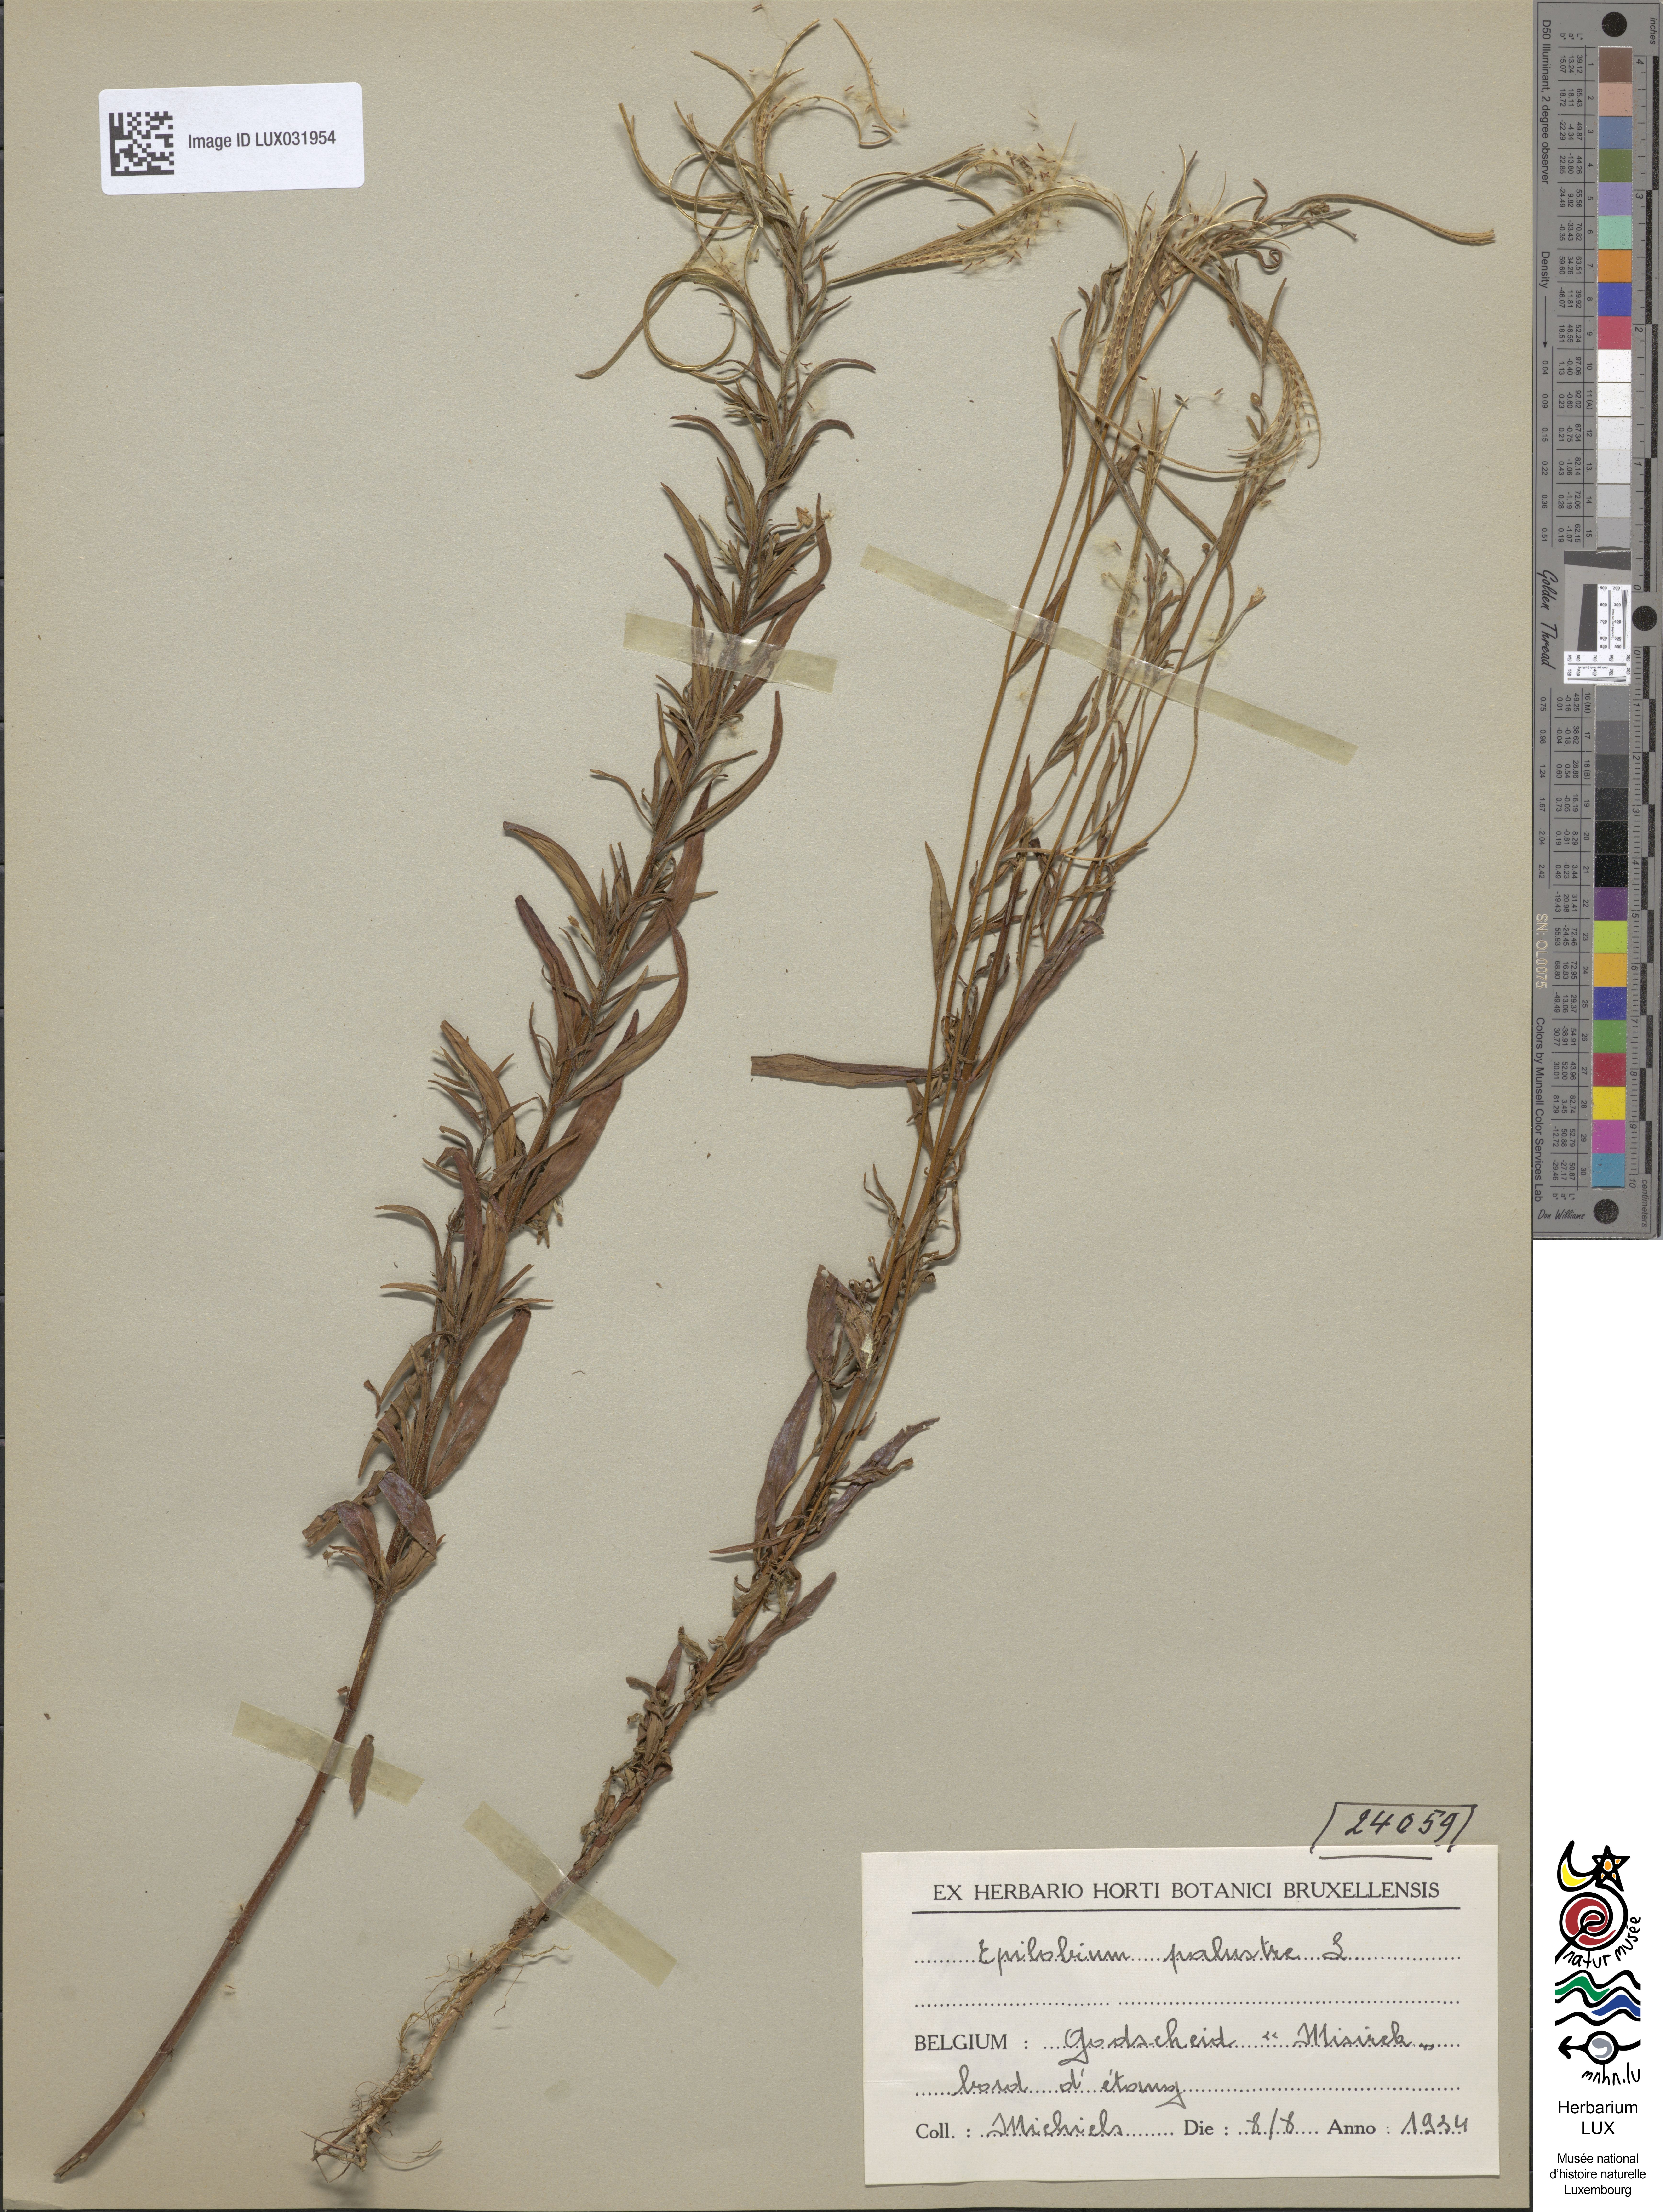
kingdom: Plantae
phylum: Tracheophyta
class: Magnoliopsida
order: Myrtales
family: Onagraceae
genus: Epilobium
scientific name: Epilobium palustre
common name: Marsh willowherb
